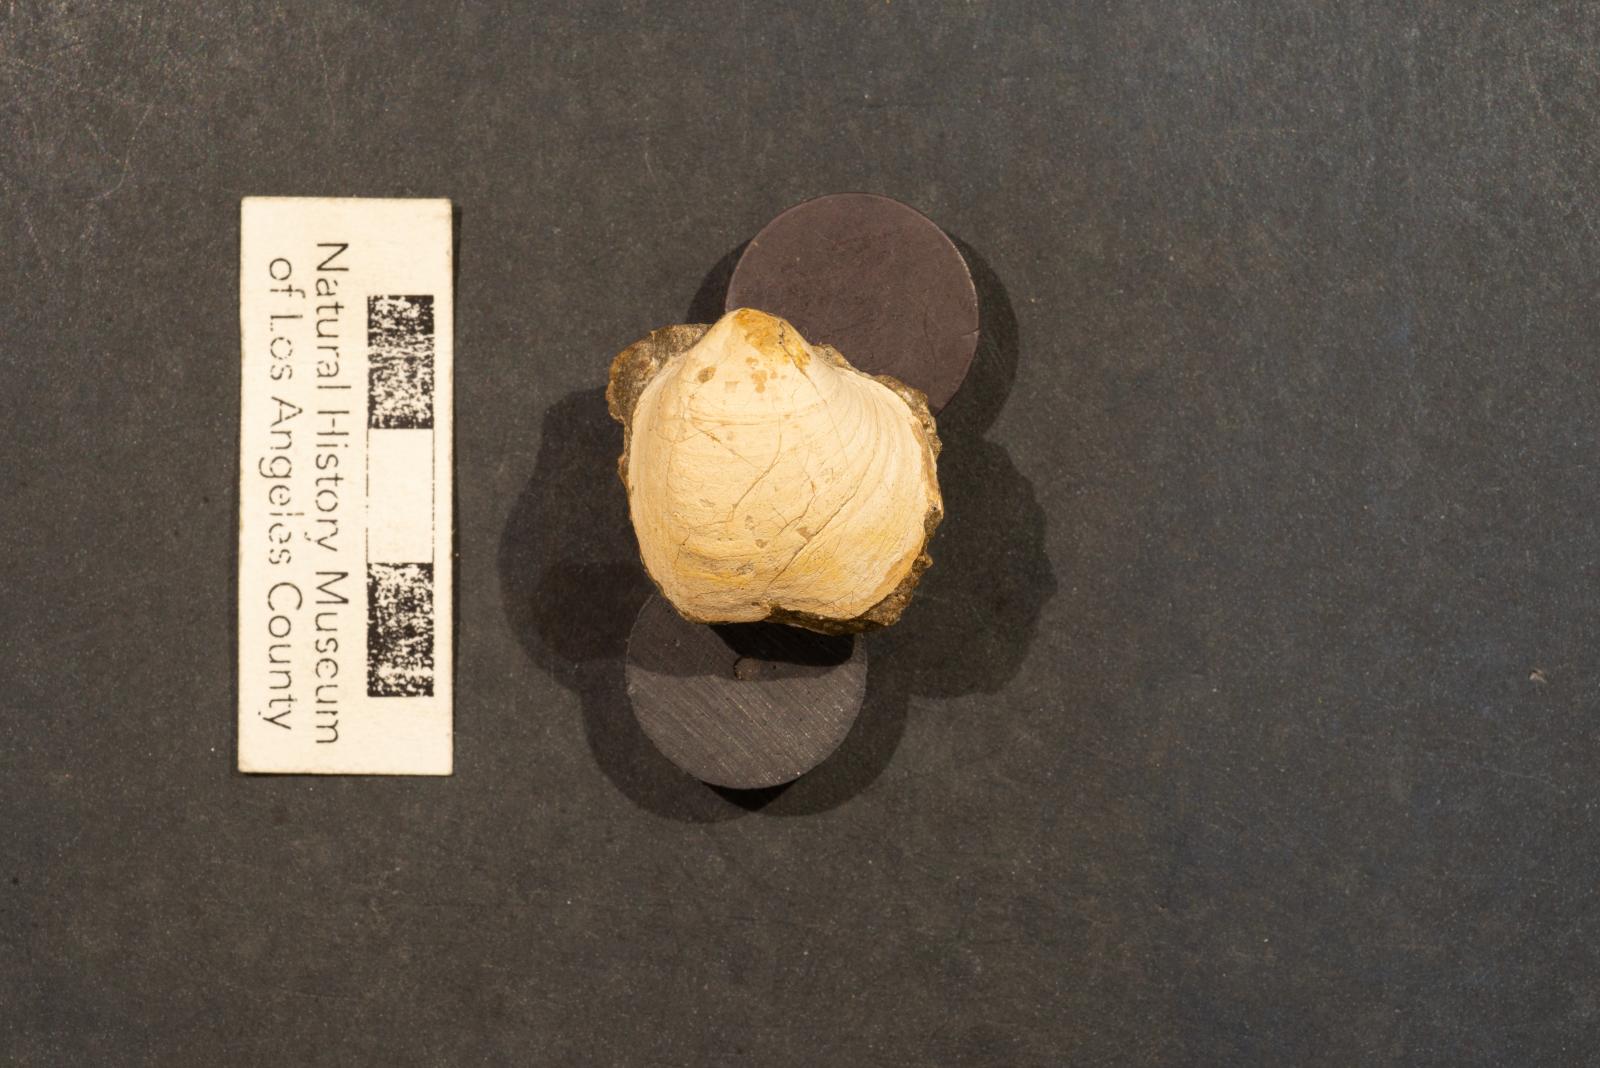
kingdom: Animalia
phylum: Mollusca
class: Bivalvia
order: Cardiida
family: Cardiidae
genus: Protocardia
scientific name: Protocardia Cardium placerensis
